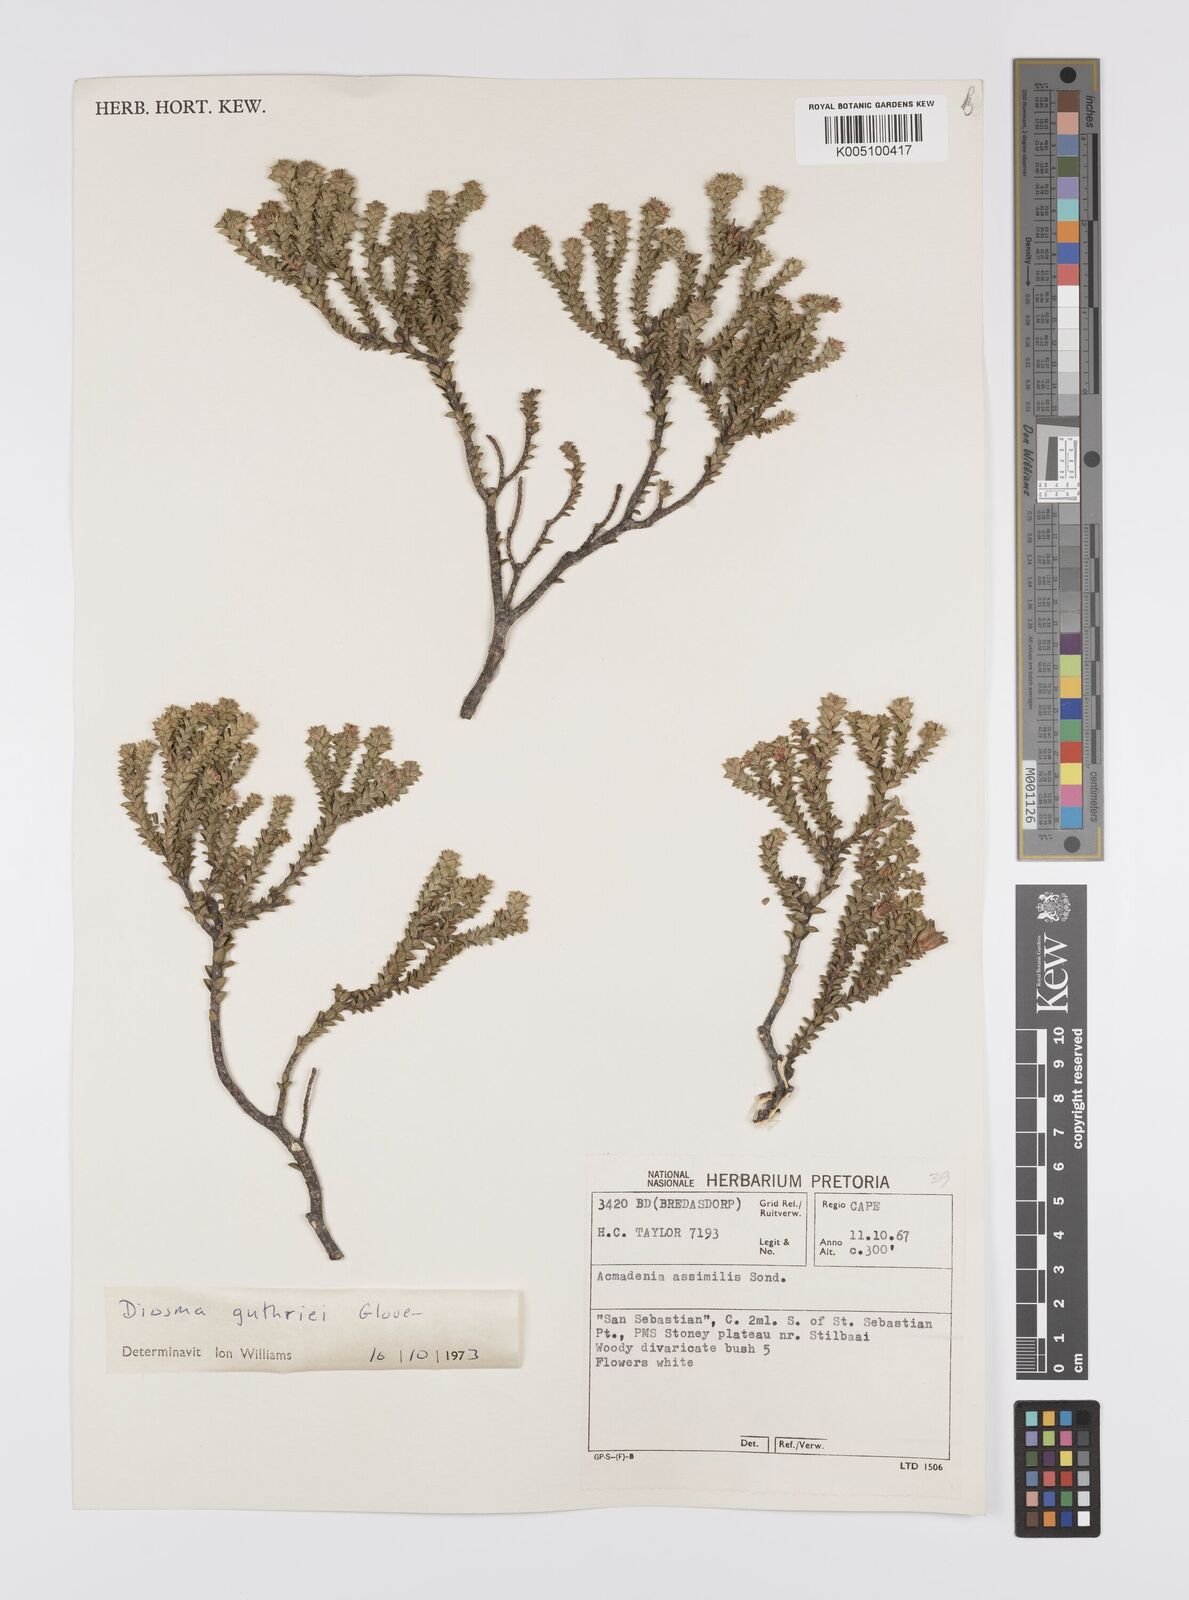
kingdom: Plantae
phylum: Tracheophyta
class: Magnoliopsida
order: Sapindales
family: Rutaceae
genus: Diosma
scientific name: Diosma guthriei
